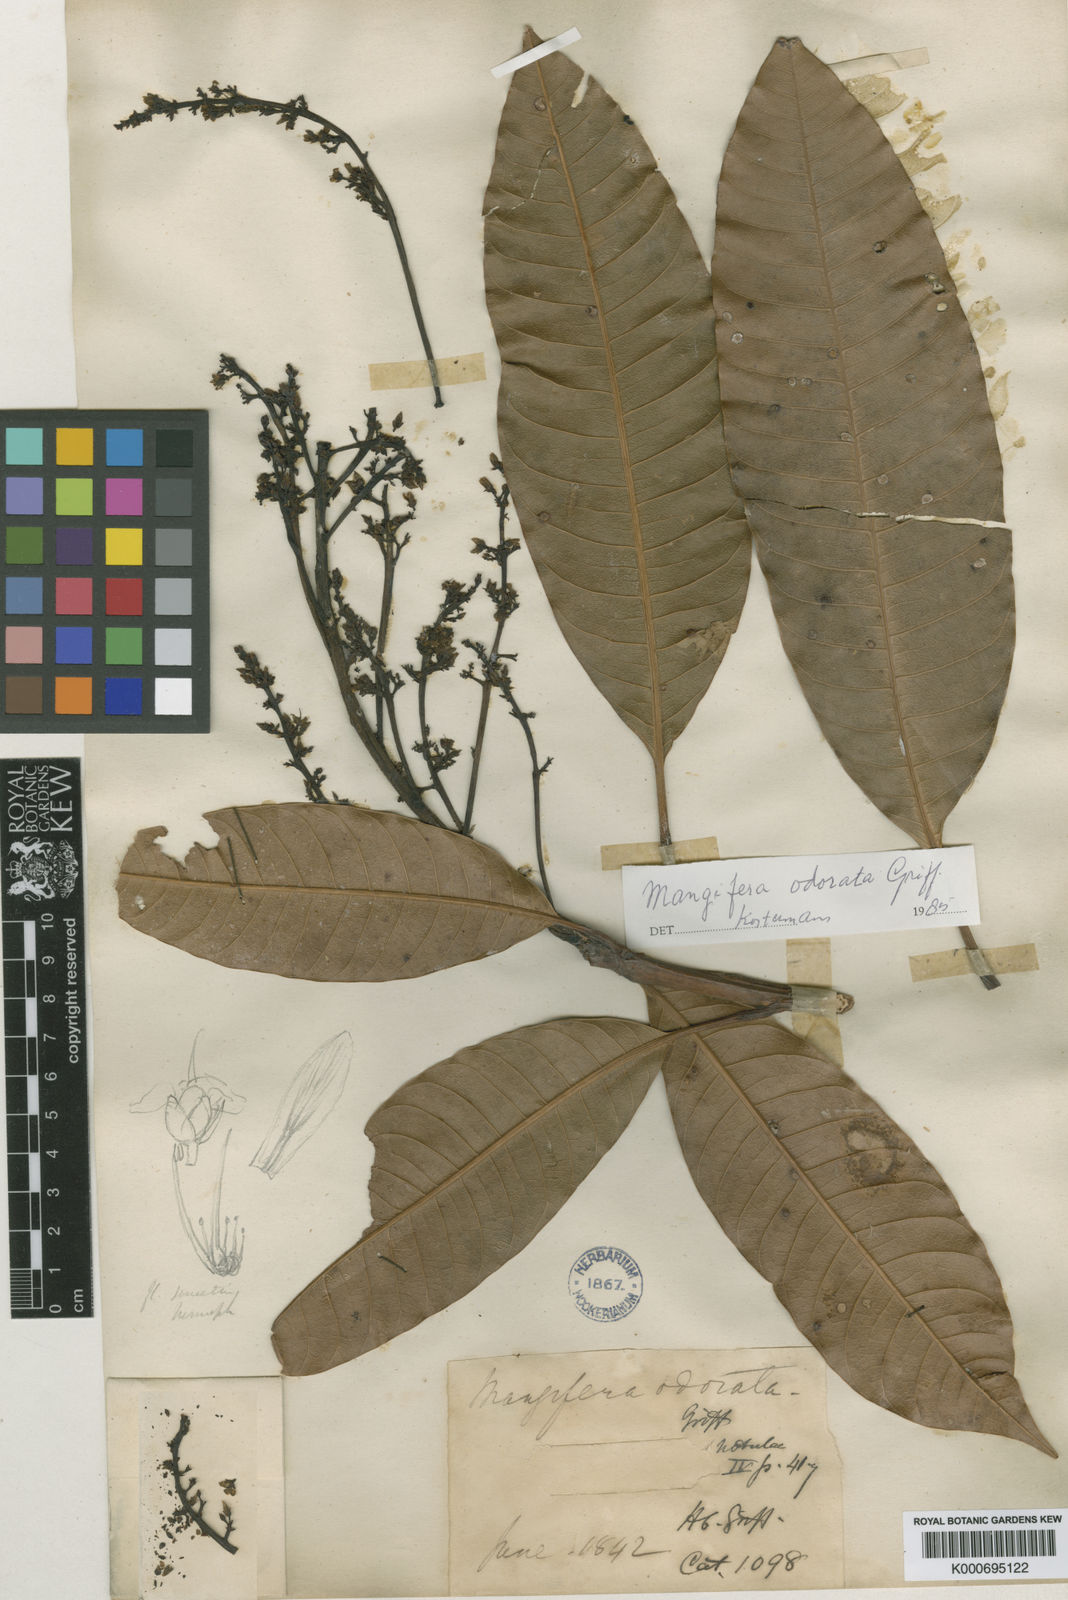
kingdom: Plantae
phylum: Tracheophyta
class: Magnoliopsida
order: Sapindales
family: Anacardiaceae
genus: Mangifera
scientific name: Mangifera odorata
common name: Saipan mango
